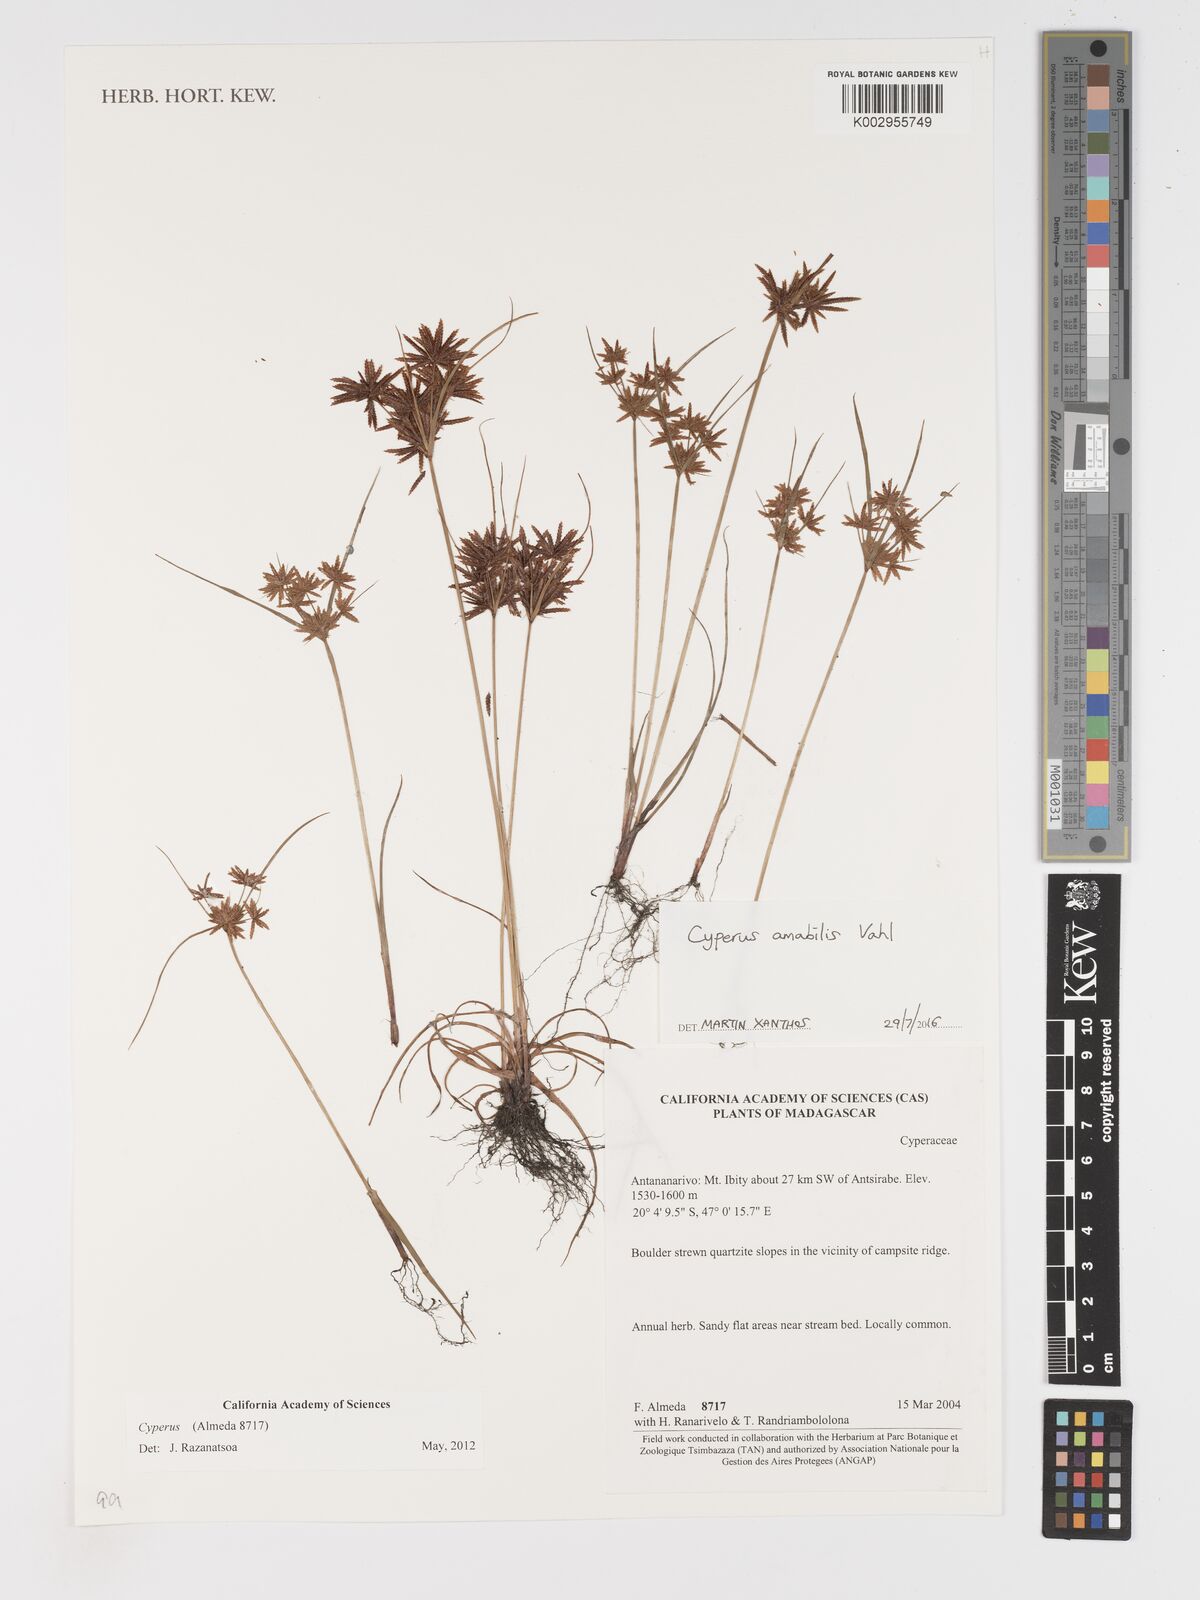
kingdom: Plantae
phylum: Tracheophyta
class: Liliopsida
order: Poales
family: Cyperaceae
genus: Cyperus
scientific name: Cyperus amabilis
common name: Foothill flat sedge
